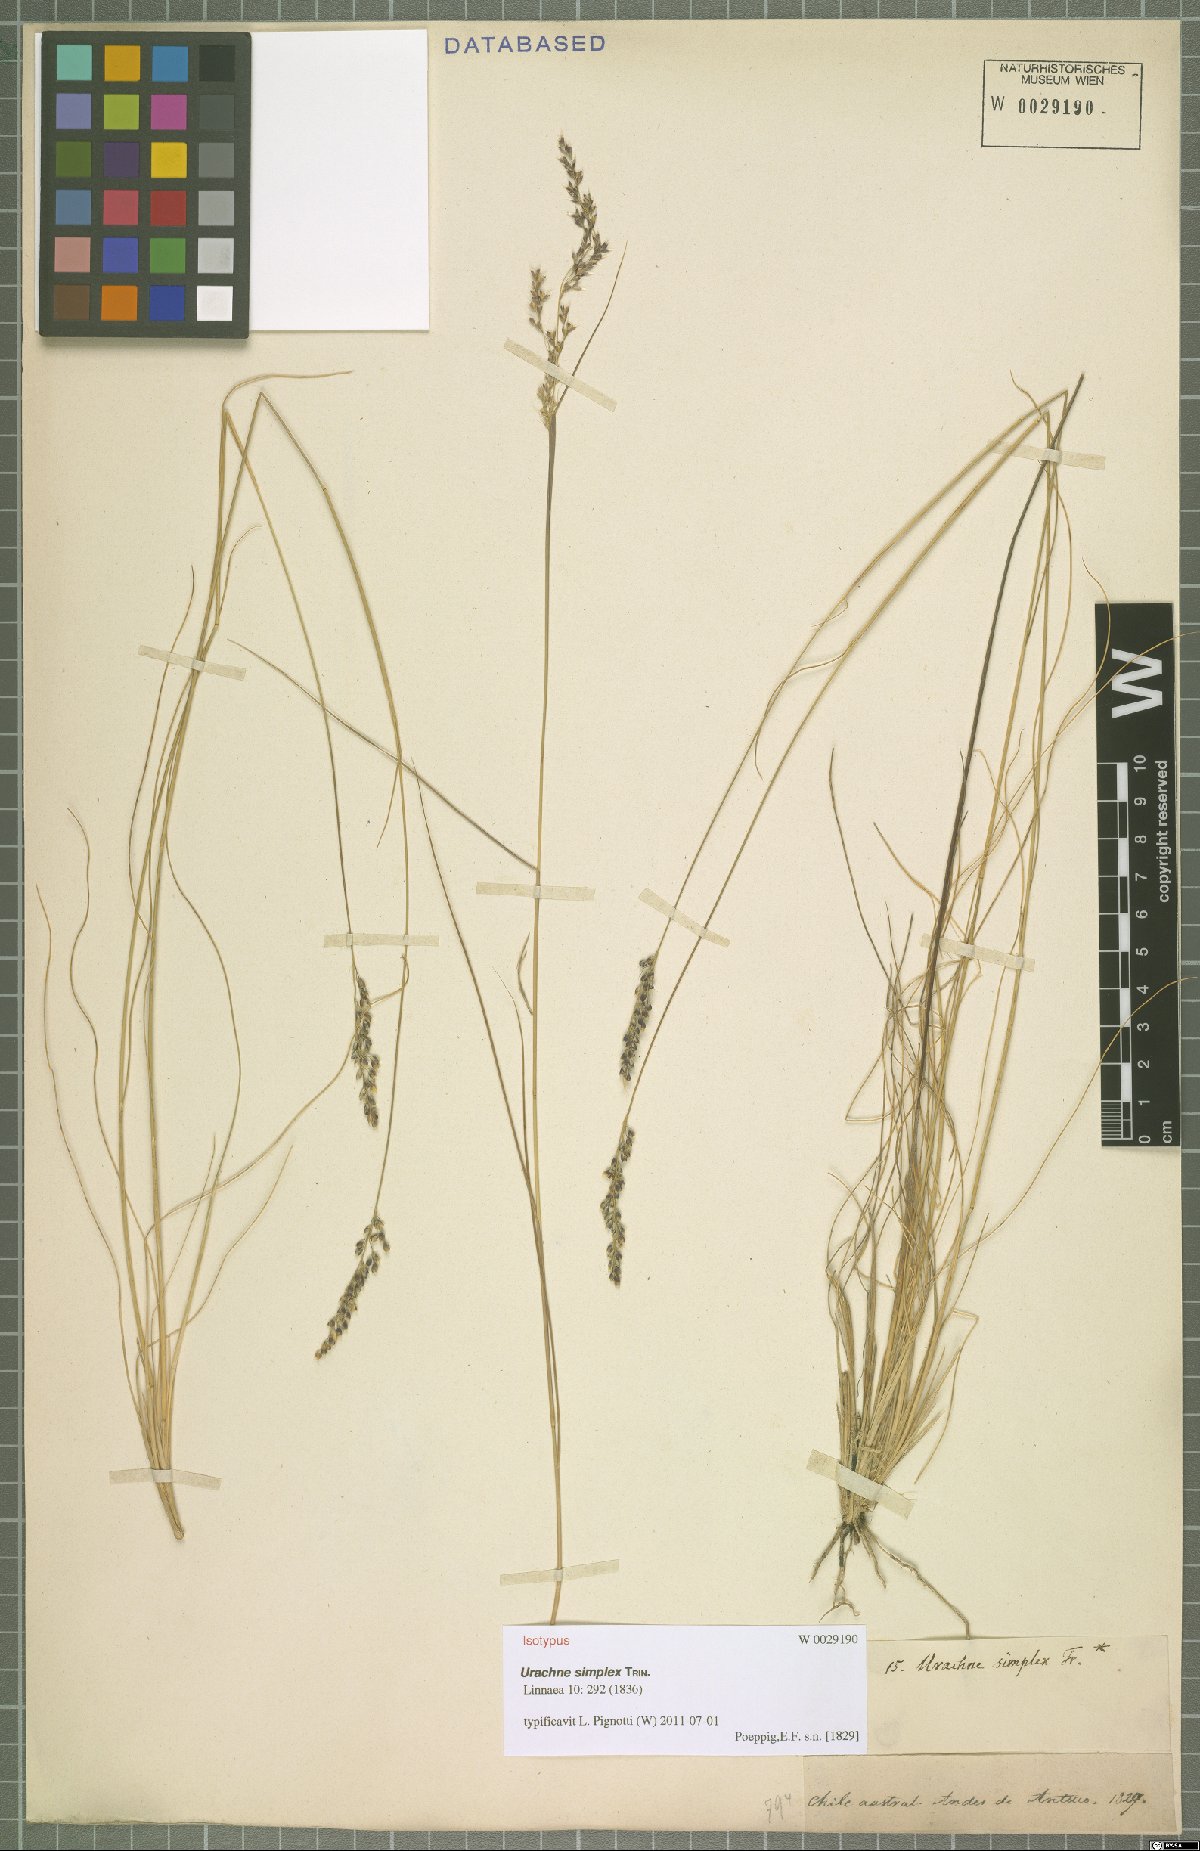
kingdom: Plantae
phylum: Tracheophyta
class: Liliopsida
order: Poales
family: Poaceae
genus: Piptochaetium
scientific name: Piptochaetium panicoides
